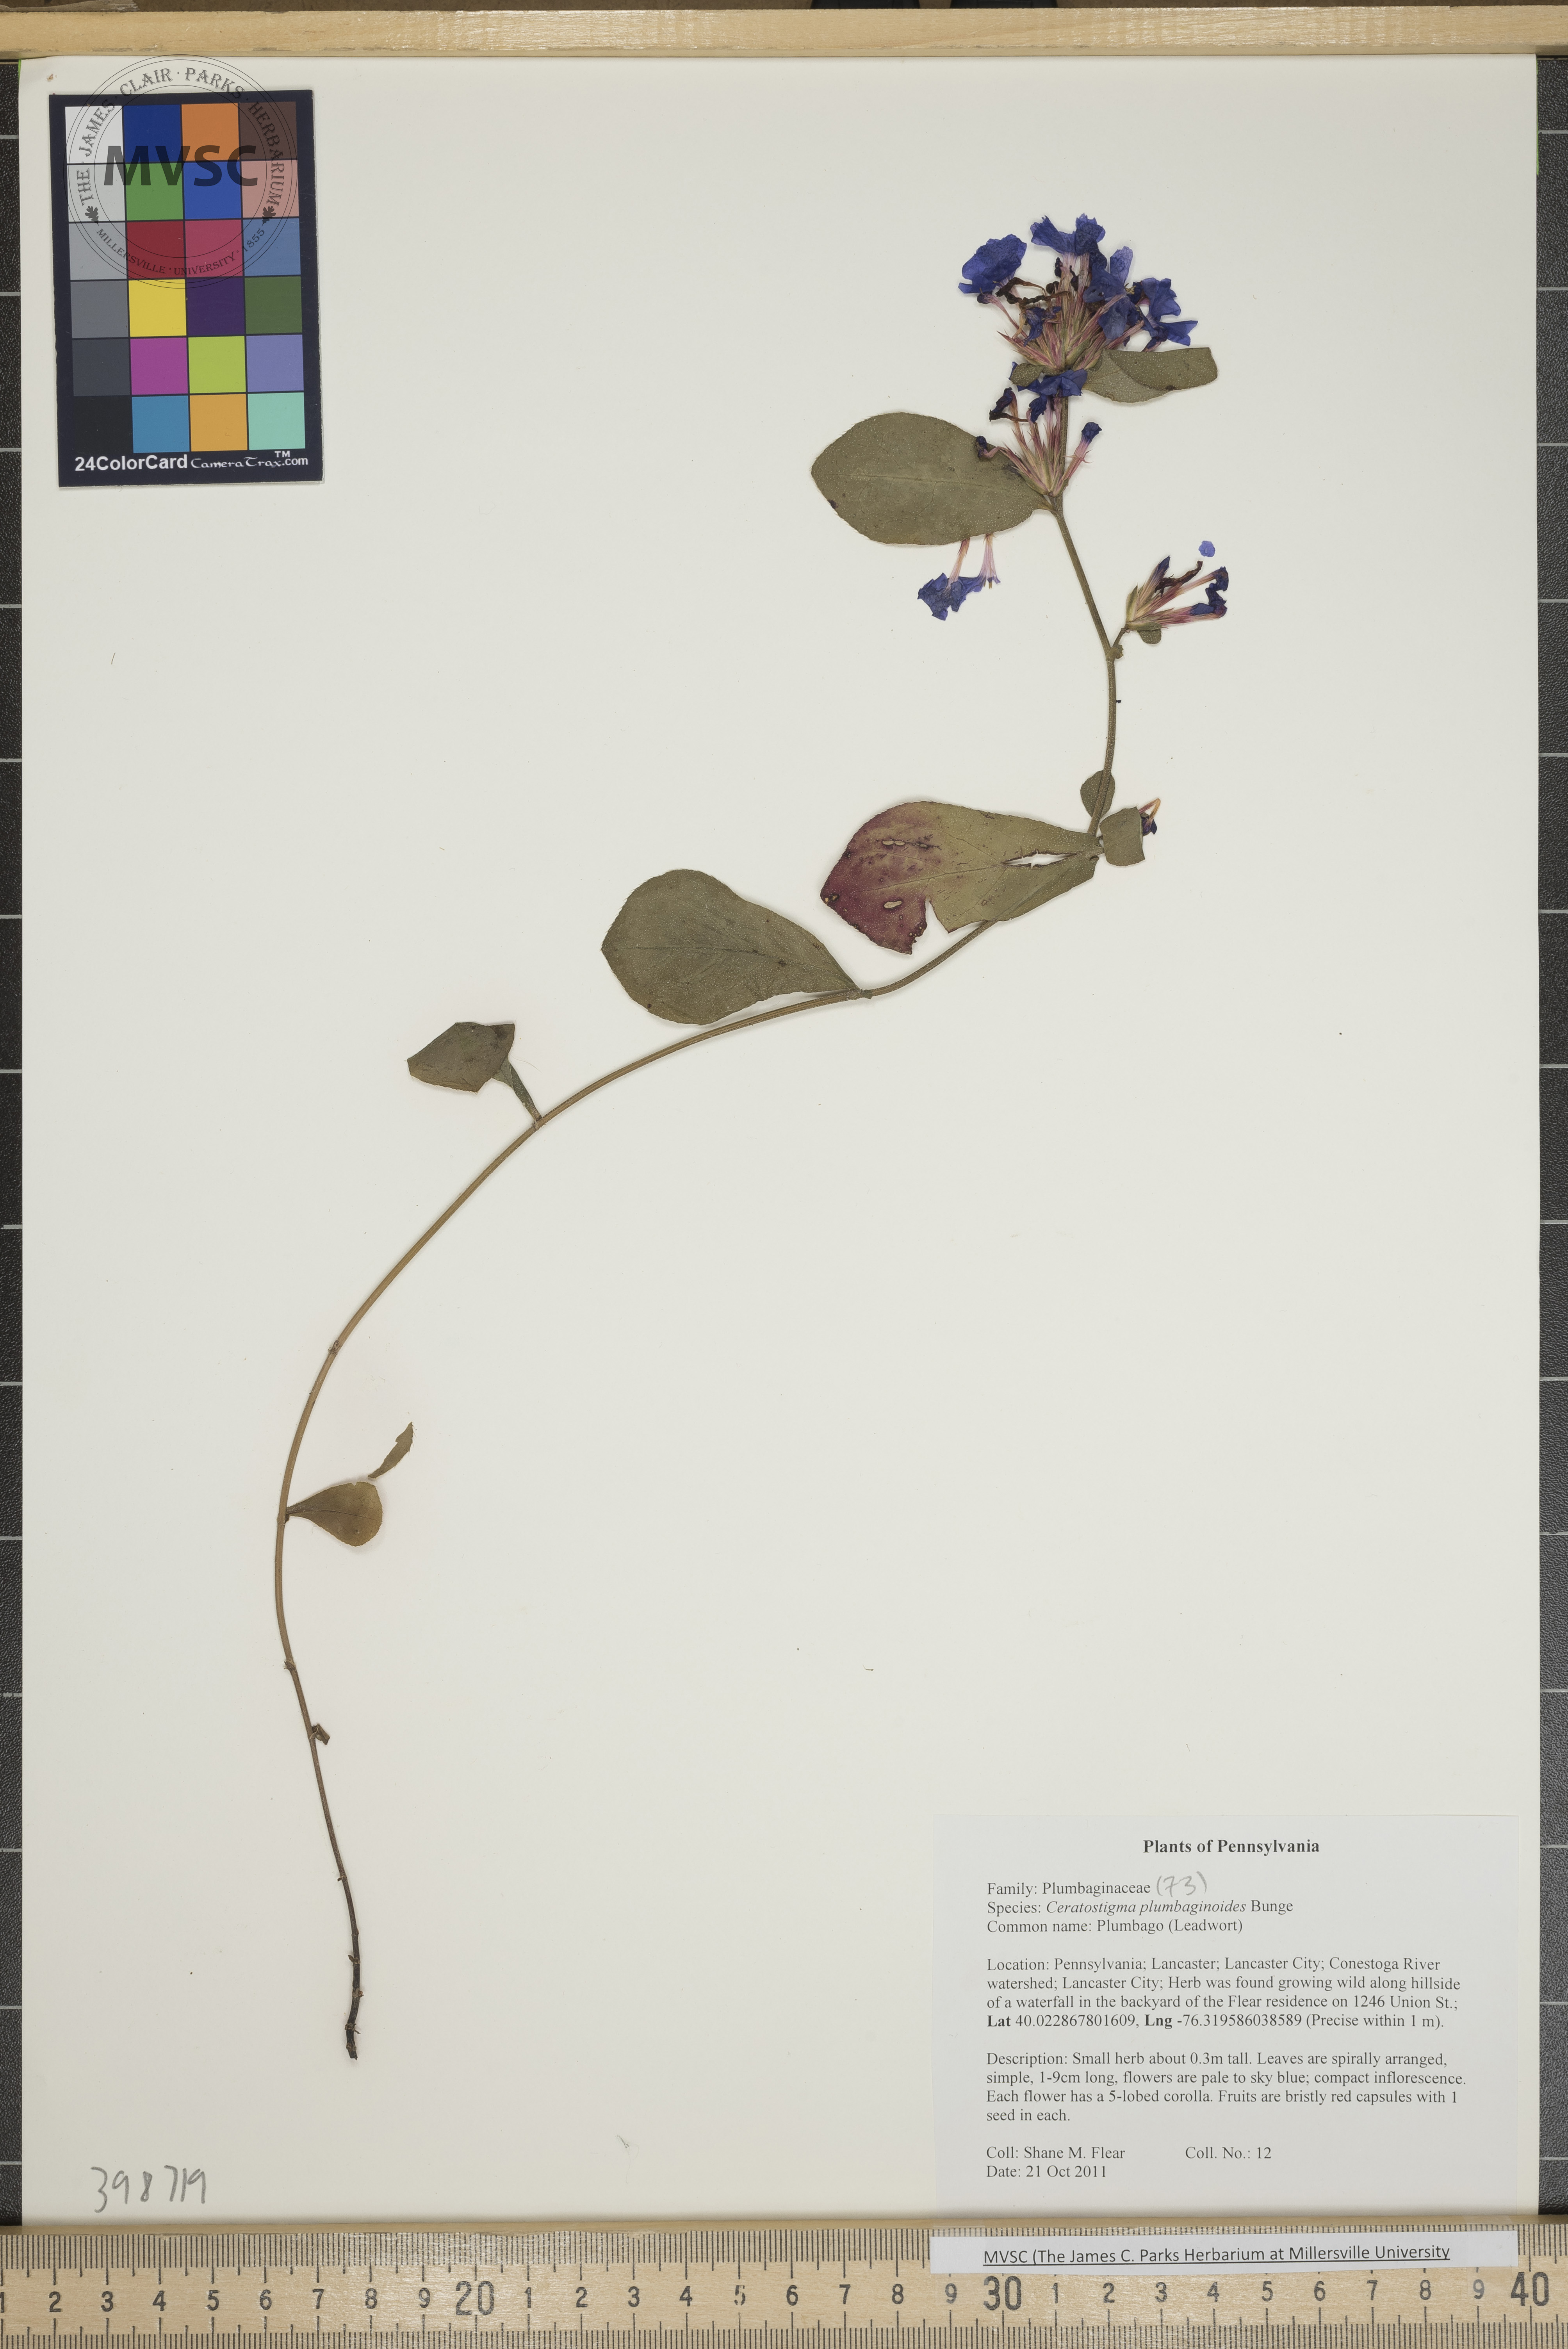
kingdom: Plantae
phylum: Tracheophyta
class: Magnoliopsida
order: Caryophyllales
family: Plumbaginaceae
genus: Ceratostigma
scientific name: Ceratostigma plumbaginoides
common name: Hornwort
